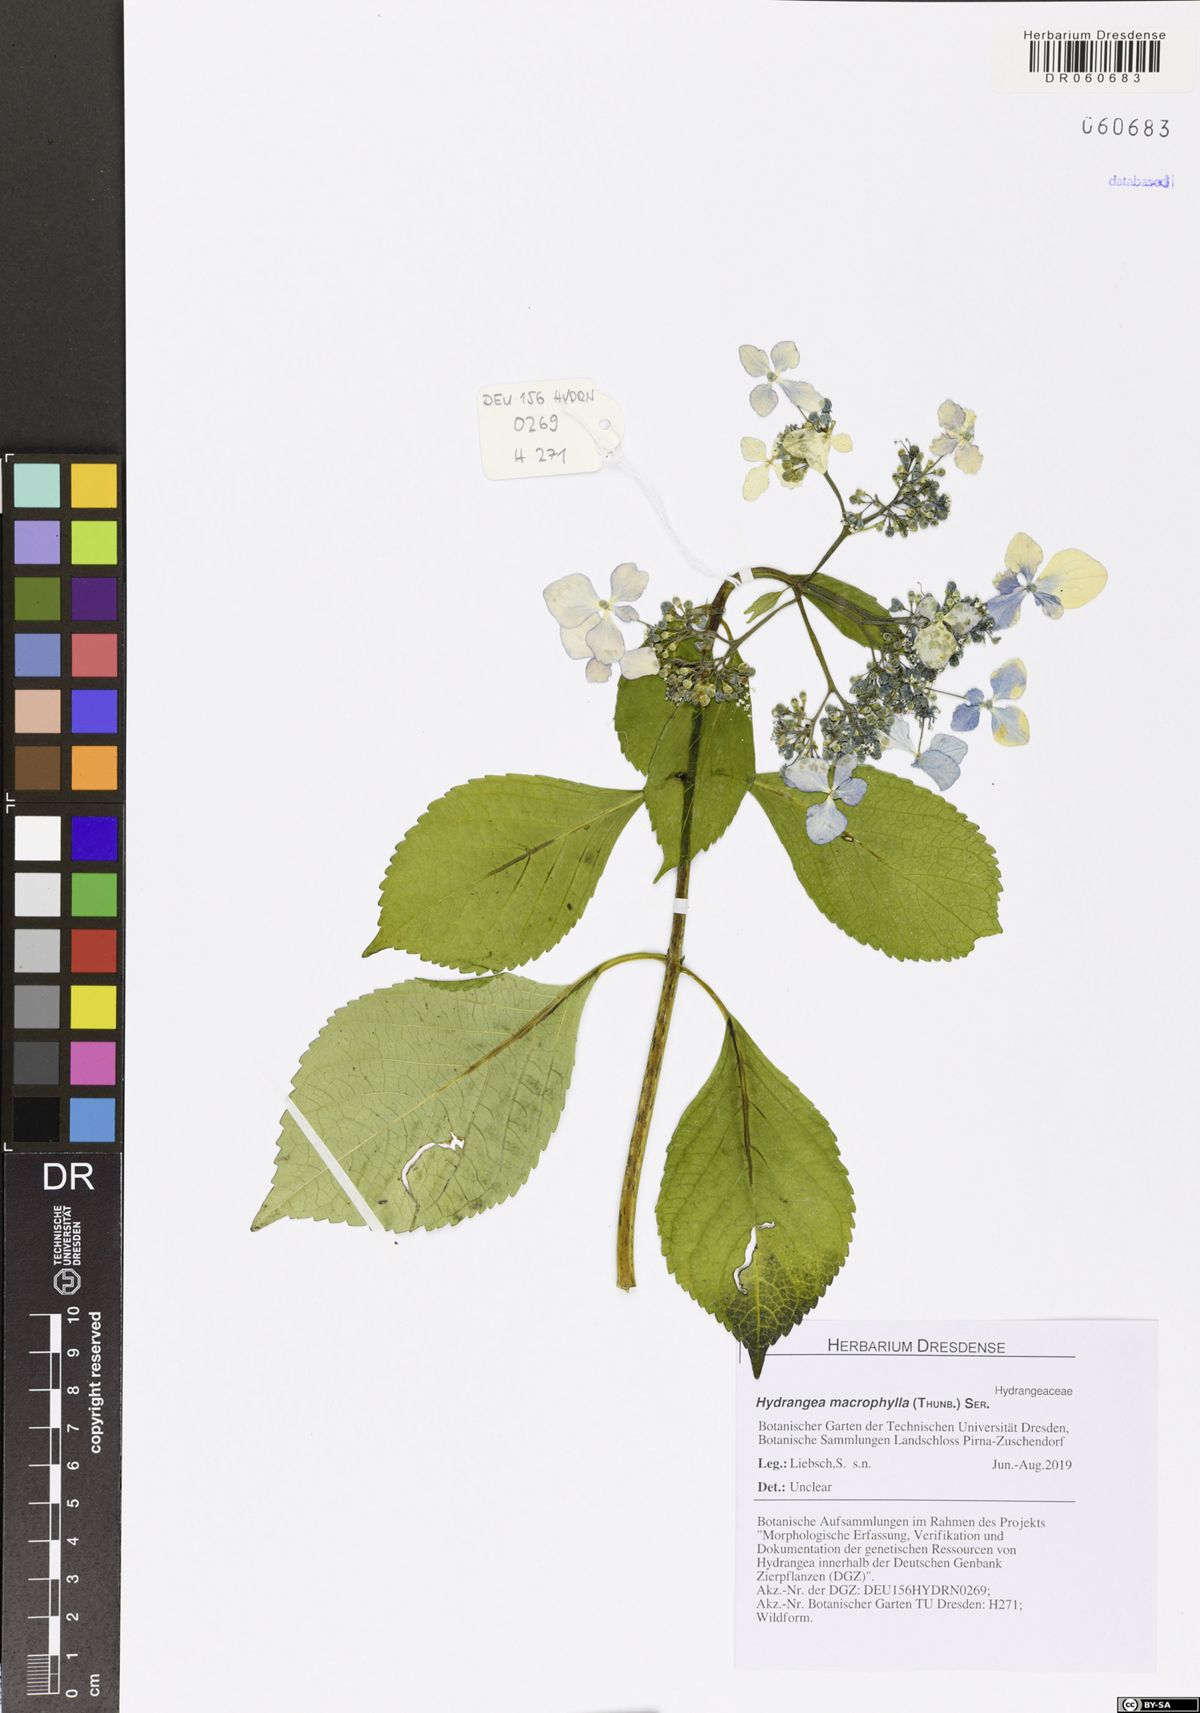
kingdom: Plantae
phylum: Tracheophyta
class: Magnoliopsida
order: Cornales
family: Hydrangeaceae
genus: Hydrangea
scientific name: Hydrangea macrophylla
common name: Hydrangea
